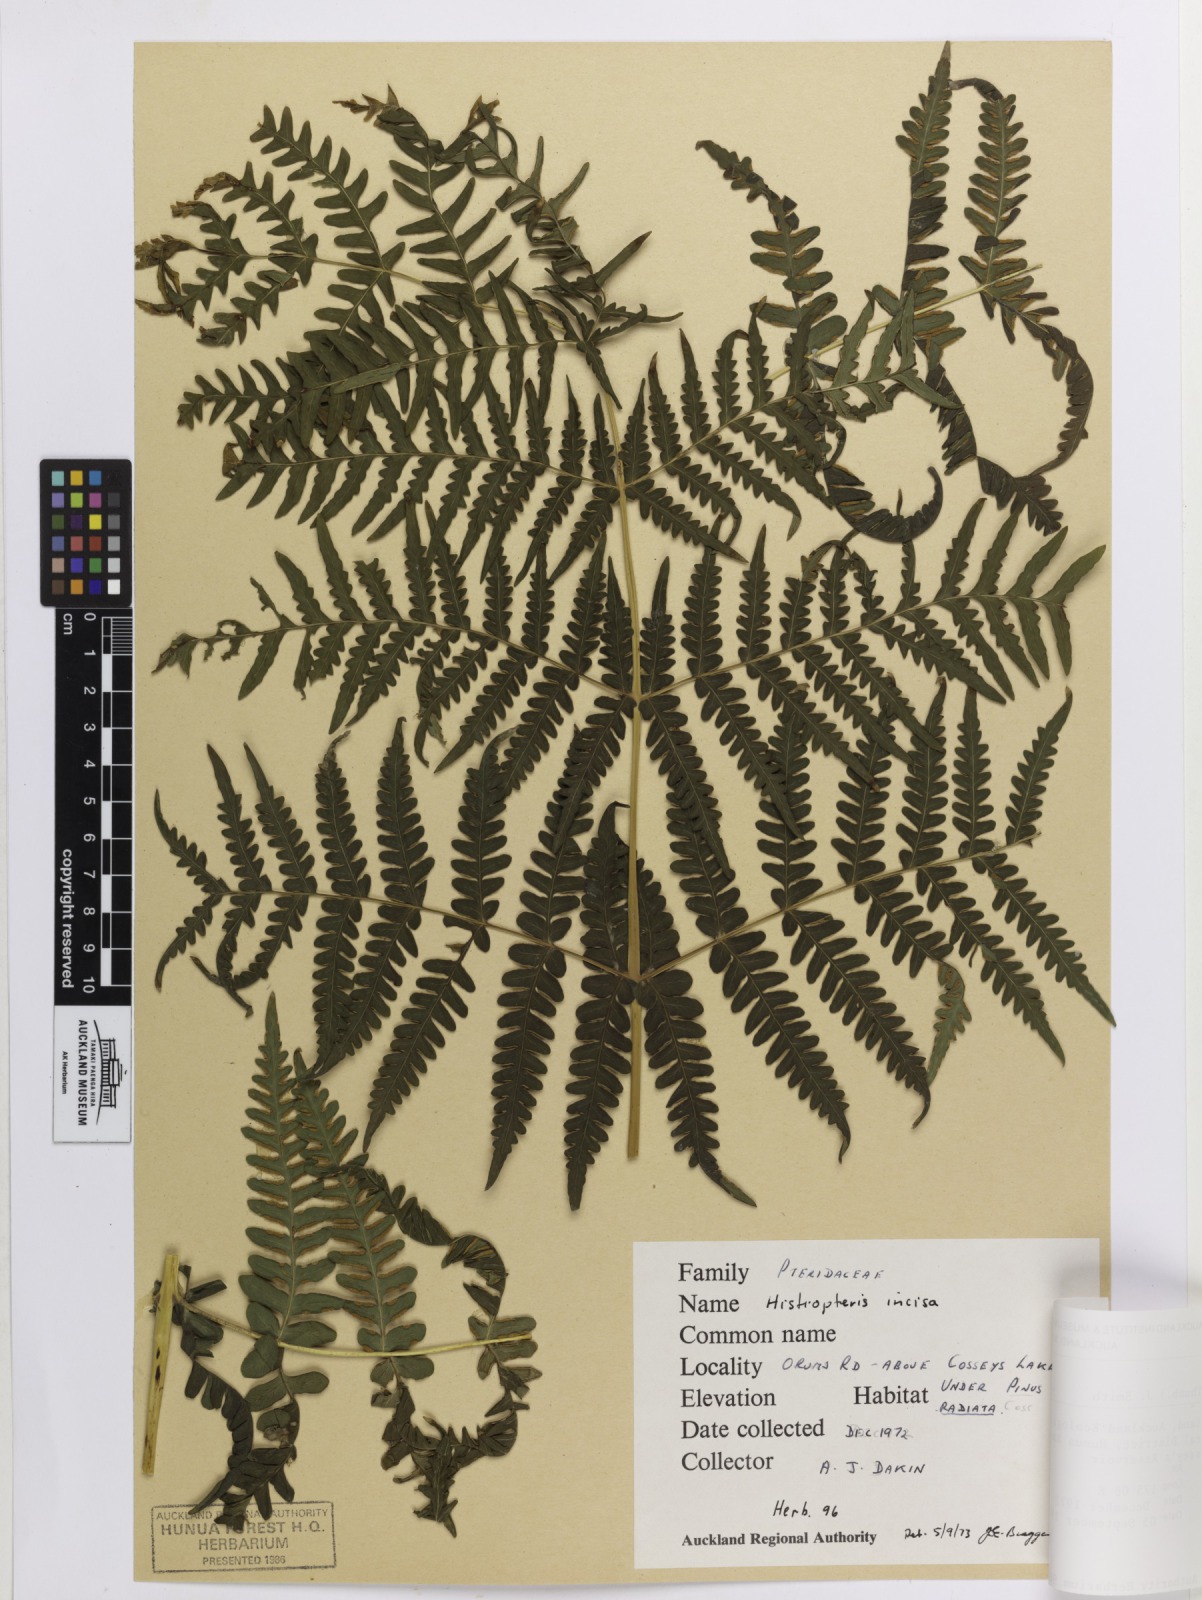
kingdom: Plantae
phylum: Tracheophyta
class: Polypodiopsida
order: Polypodiales
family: Dennstaedtiaceae
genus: Histiopteris
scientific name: Histiopteris incisa
